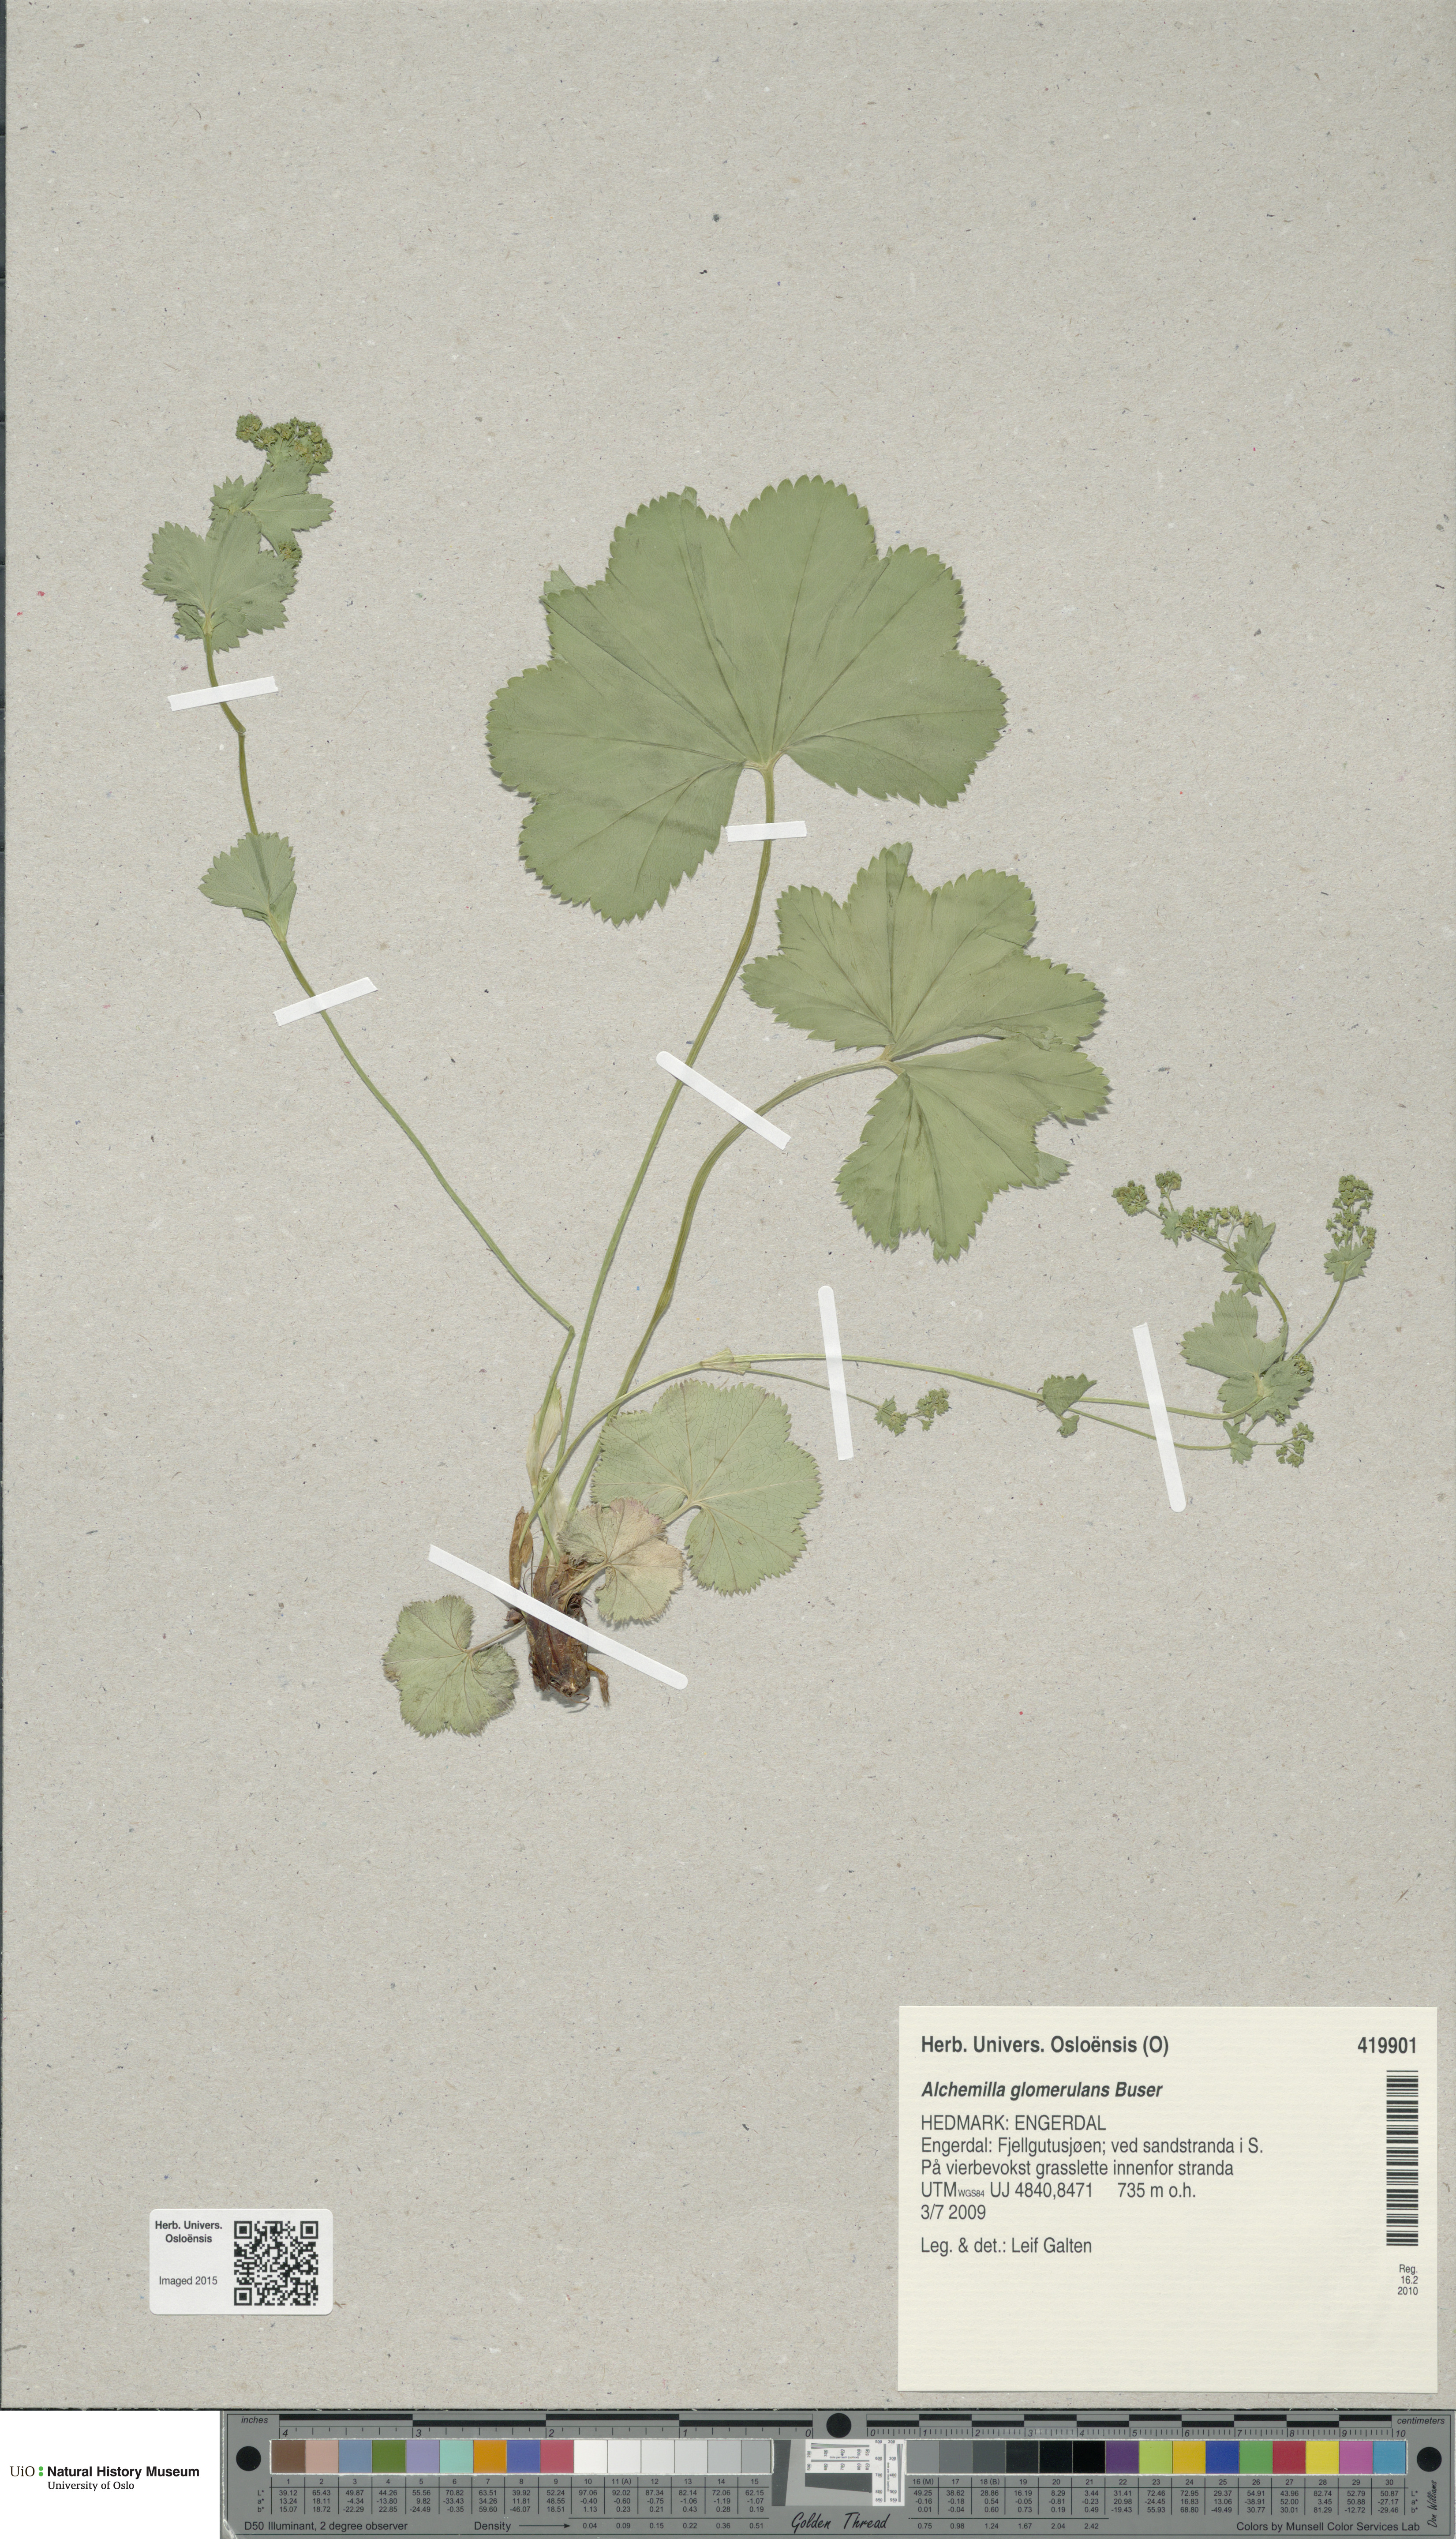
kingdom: Plantae
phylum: Tracheophyta
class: Magnoliopsida
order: Rosales
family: Rosaceae
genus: Alchemilla
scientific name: Alchemilla glomerulans
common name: Clustered lady's mantle
